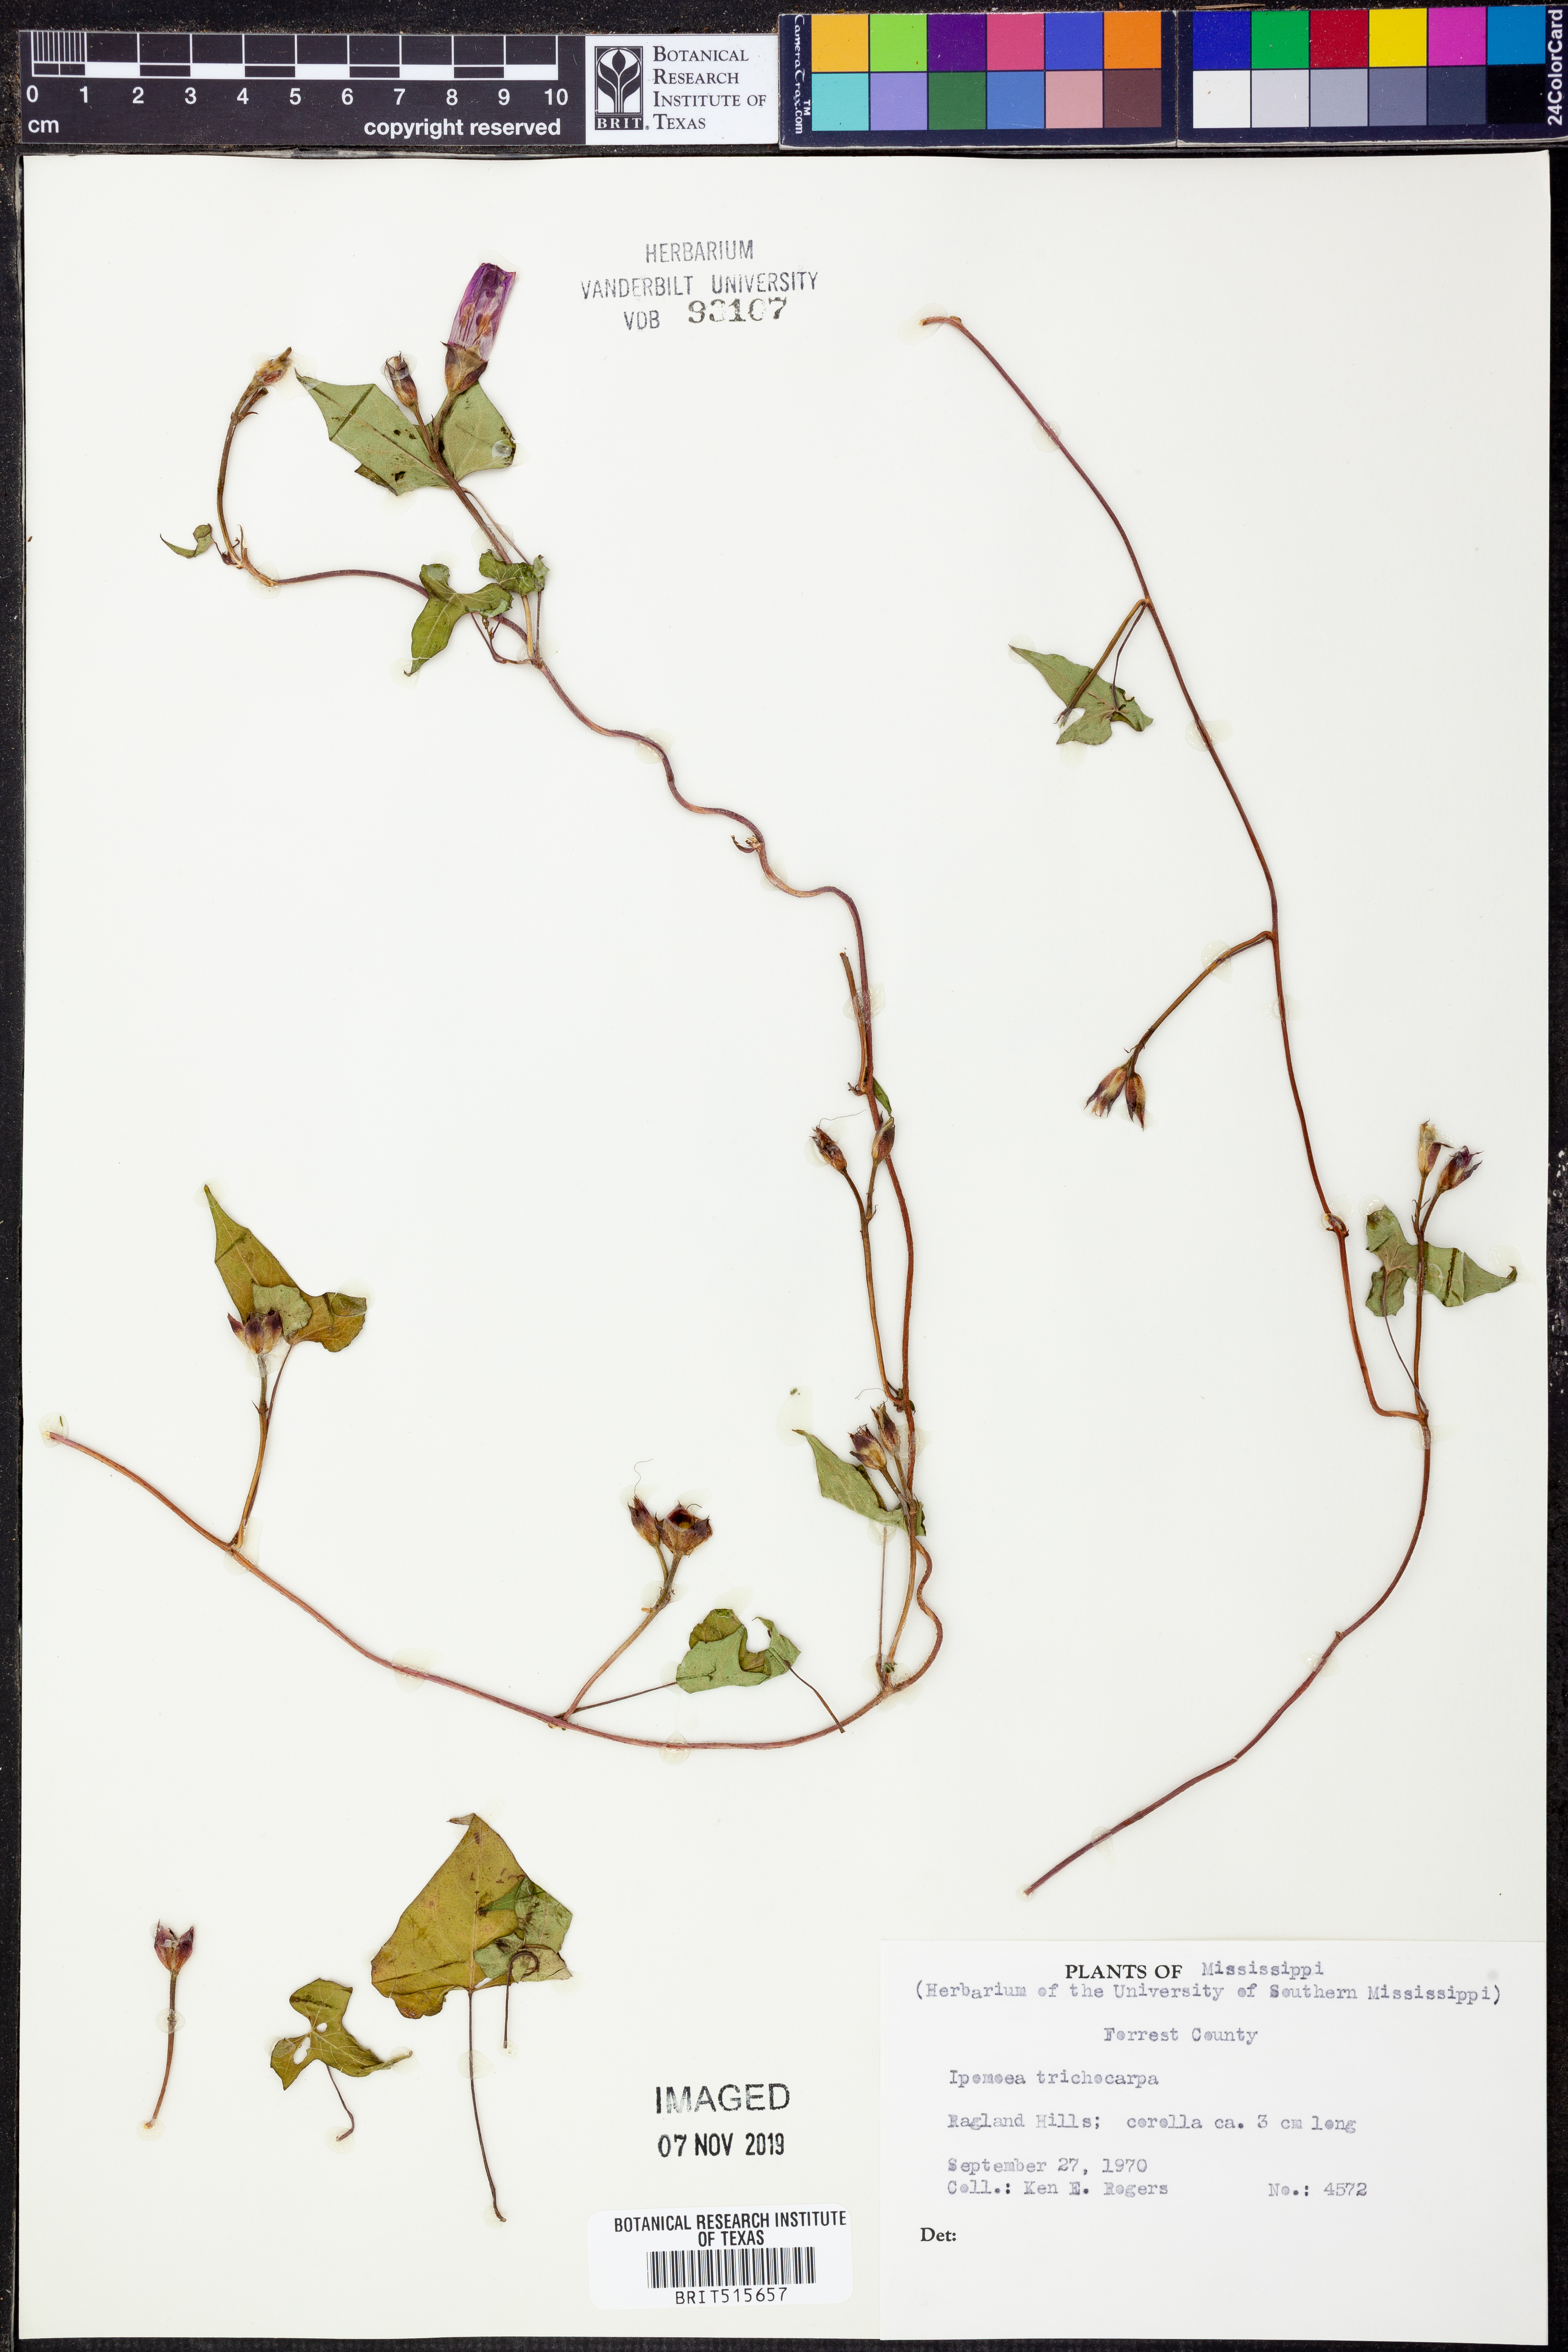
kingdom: Plantae
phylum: Tracheophyta
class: Magnoliopsida
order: Solanales
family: Convolvulaceae
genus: Ipomoea
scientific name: Ipomoea cordatotriloba
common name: Cotton morning glory
